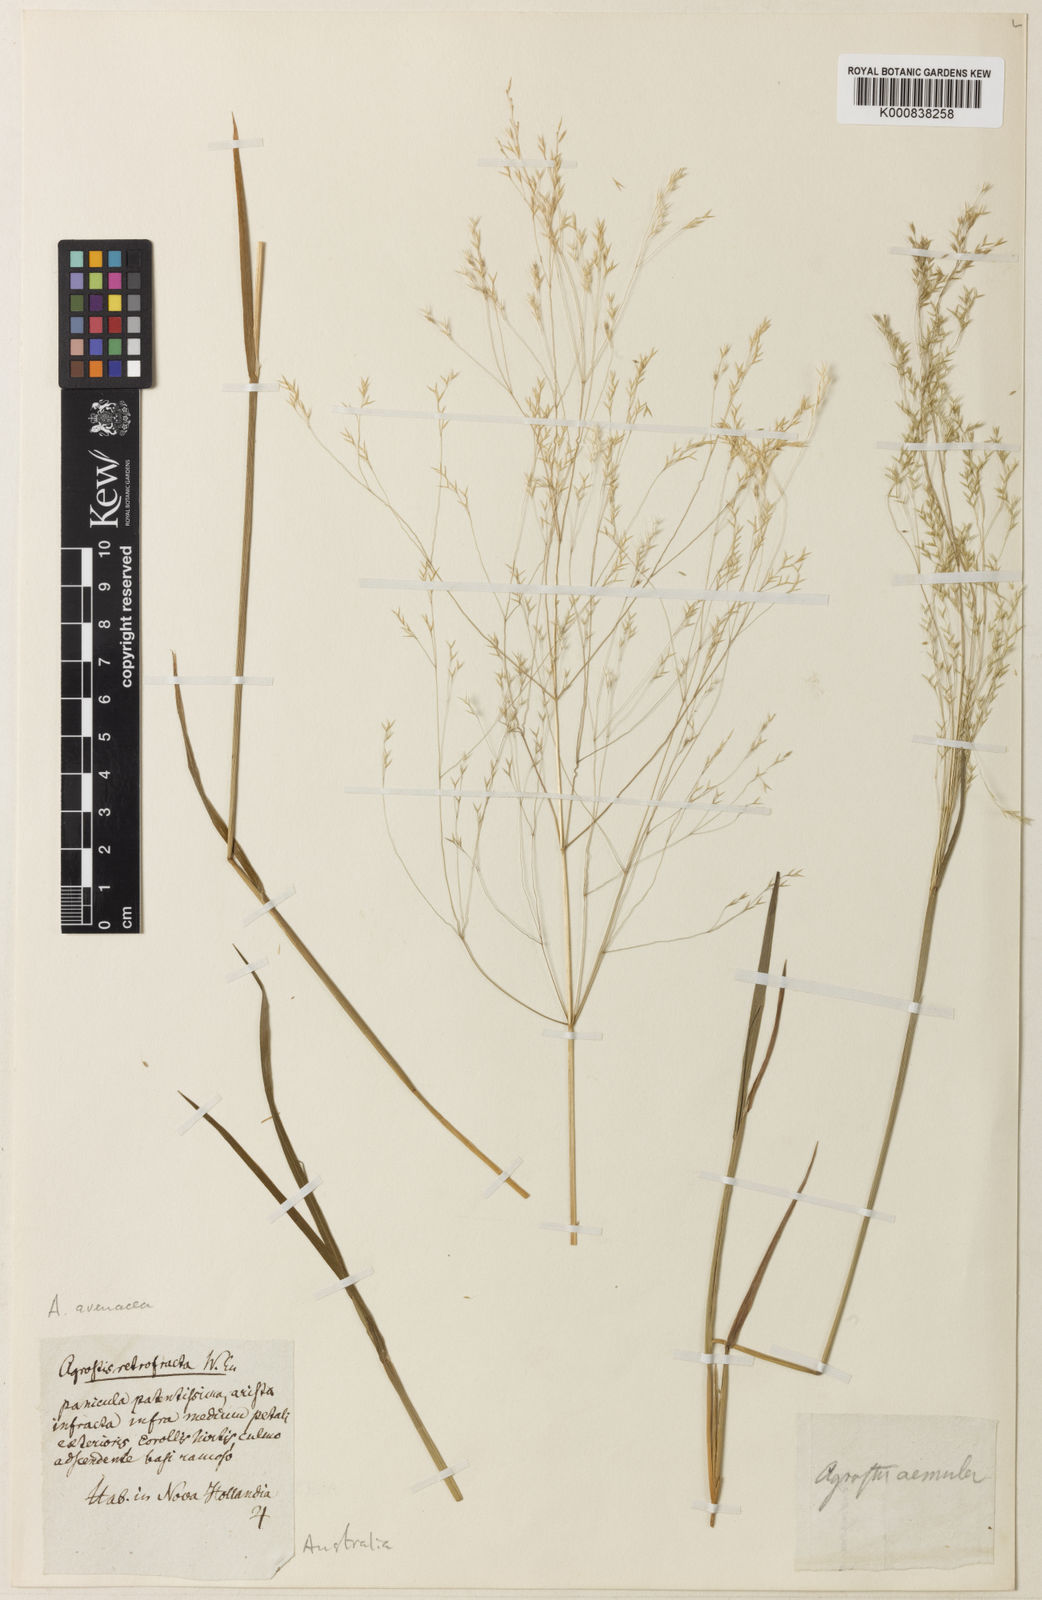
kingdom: Plantae
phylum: Tracheophyta
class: Liliopsida
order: Poales
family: Poaceae
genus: Lachnagrostis
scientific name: Lachnagrostis filiformis
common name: Bentgrass
